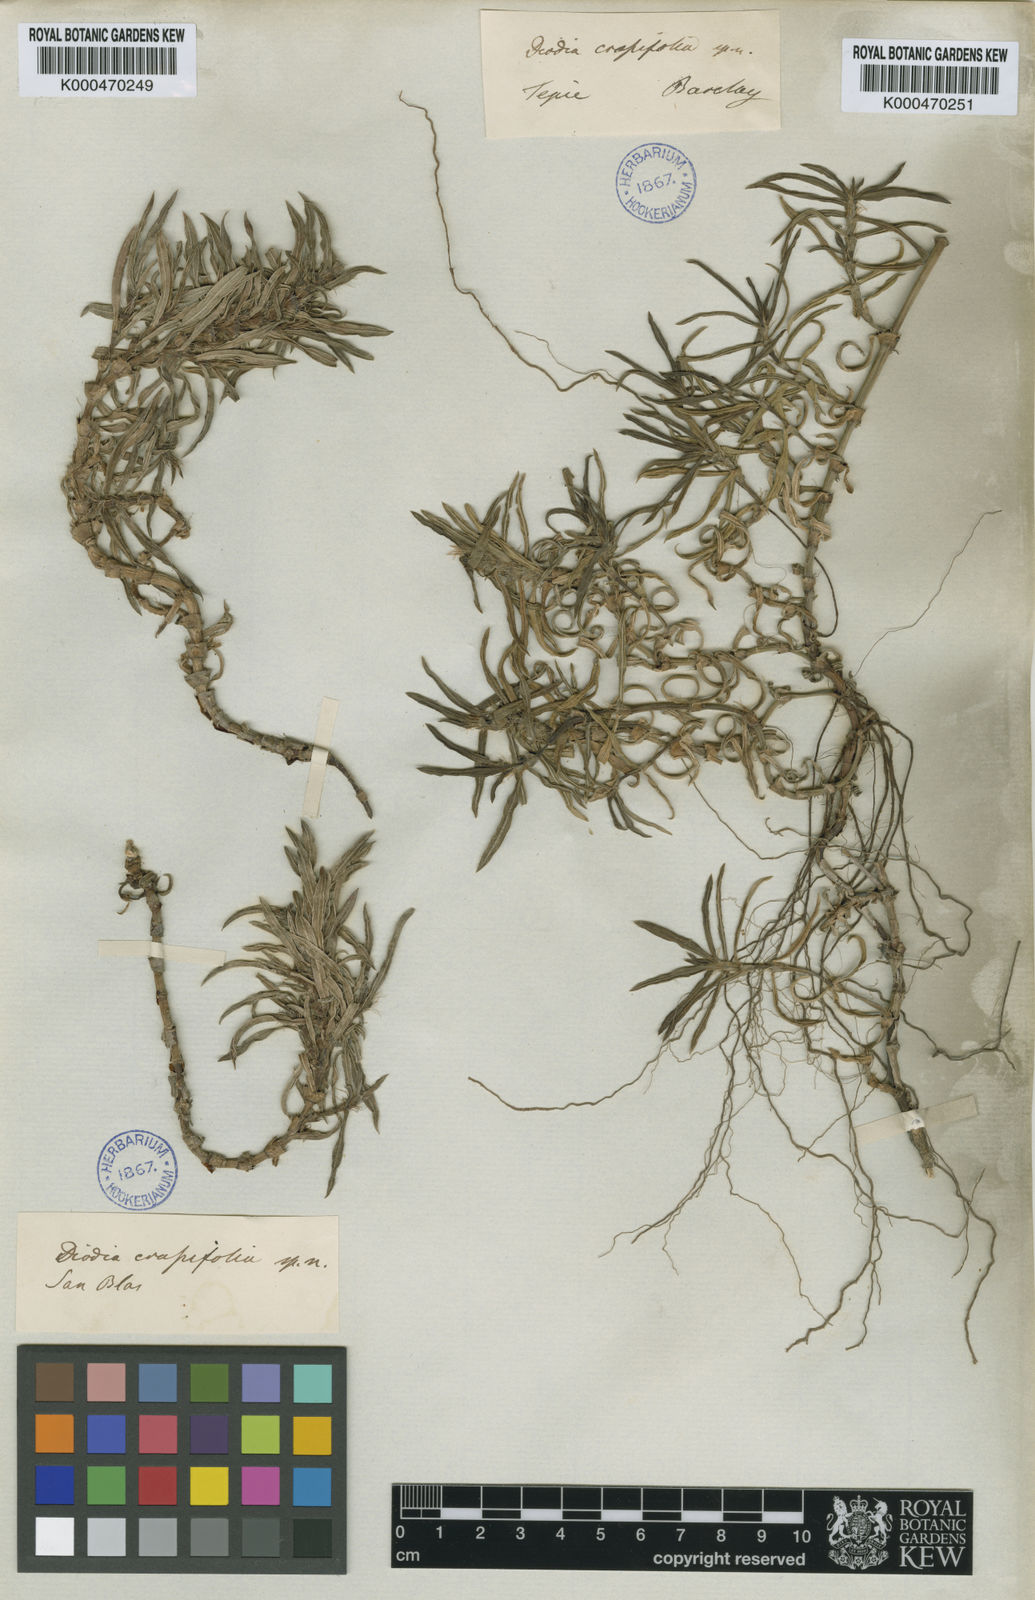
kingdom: Plantae
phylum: Tracheophyta
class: Magnoliopsida
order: Gentianales
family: Rubiaceae
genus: Hexasepalum
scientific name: Hexasepalum angustifolium
